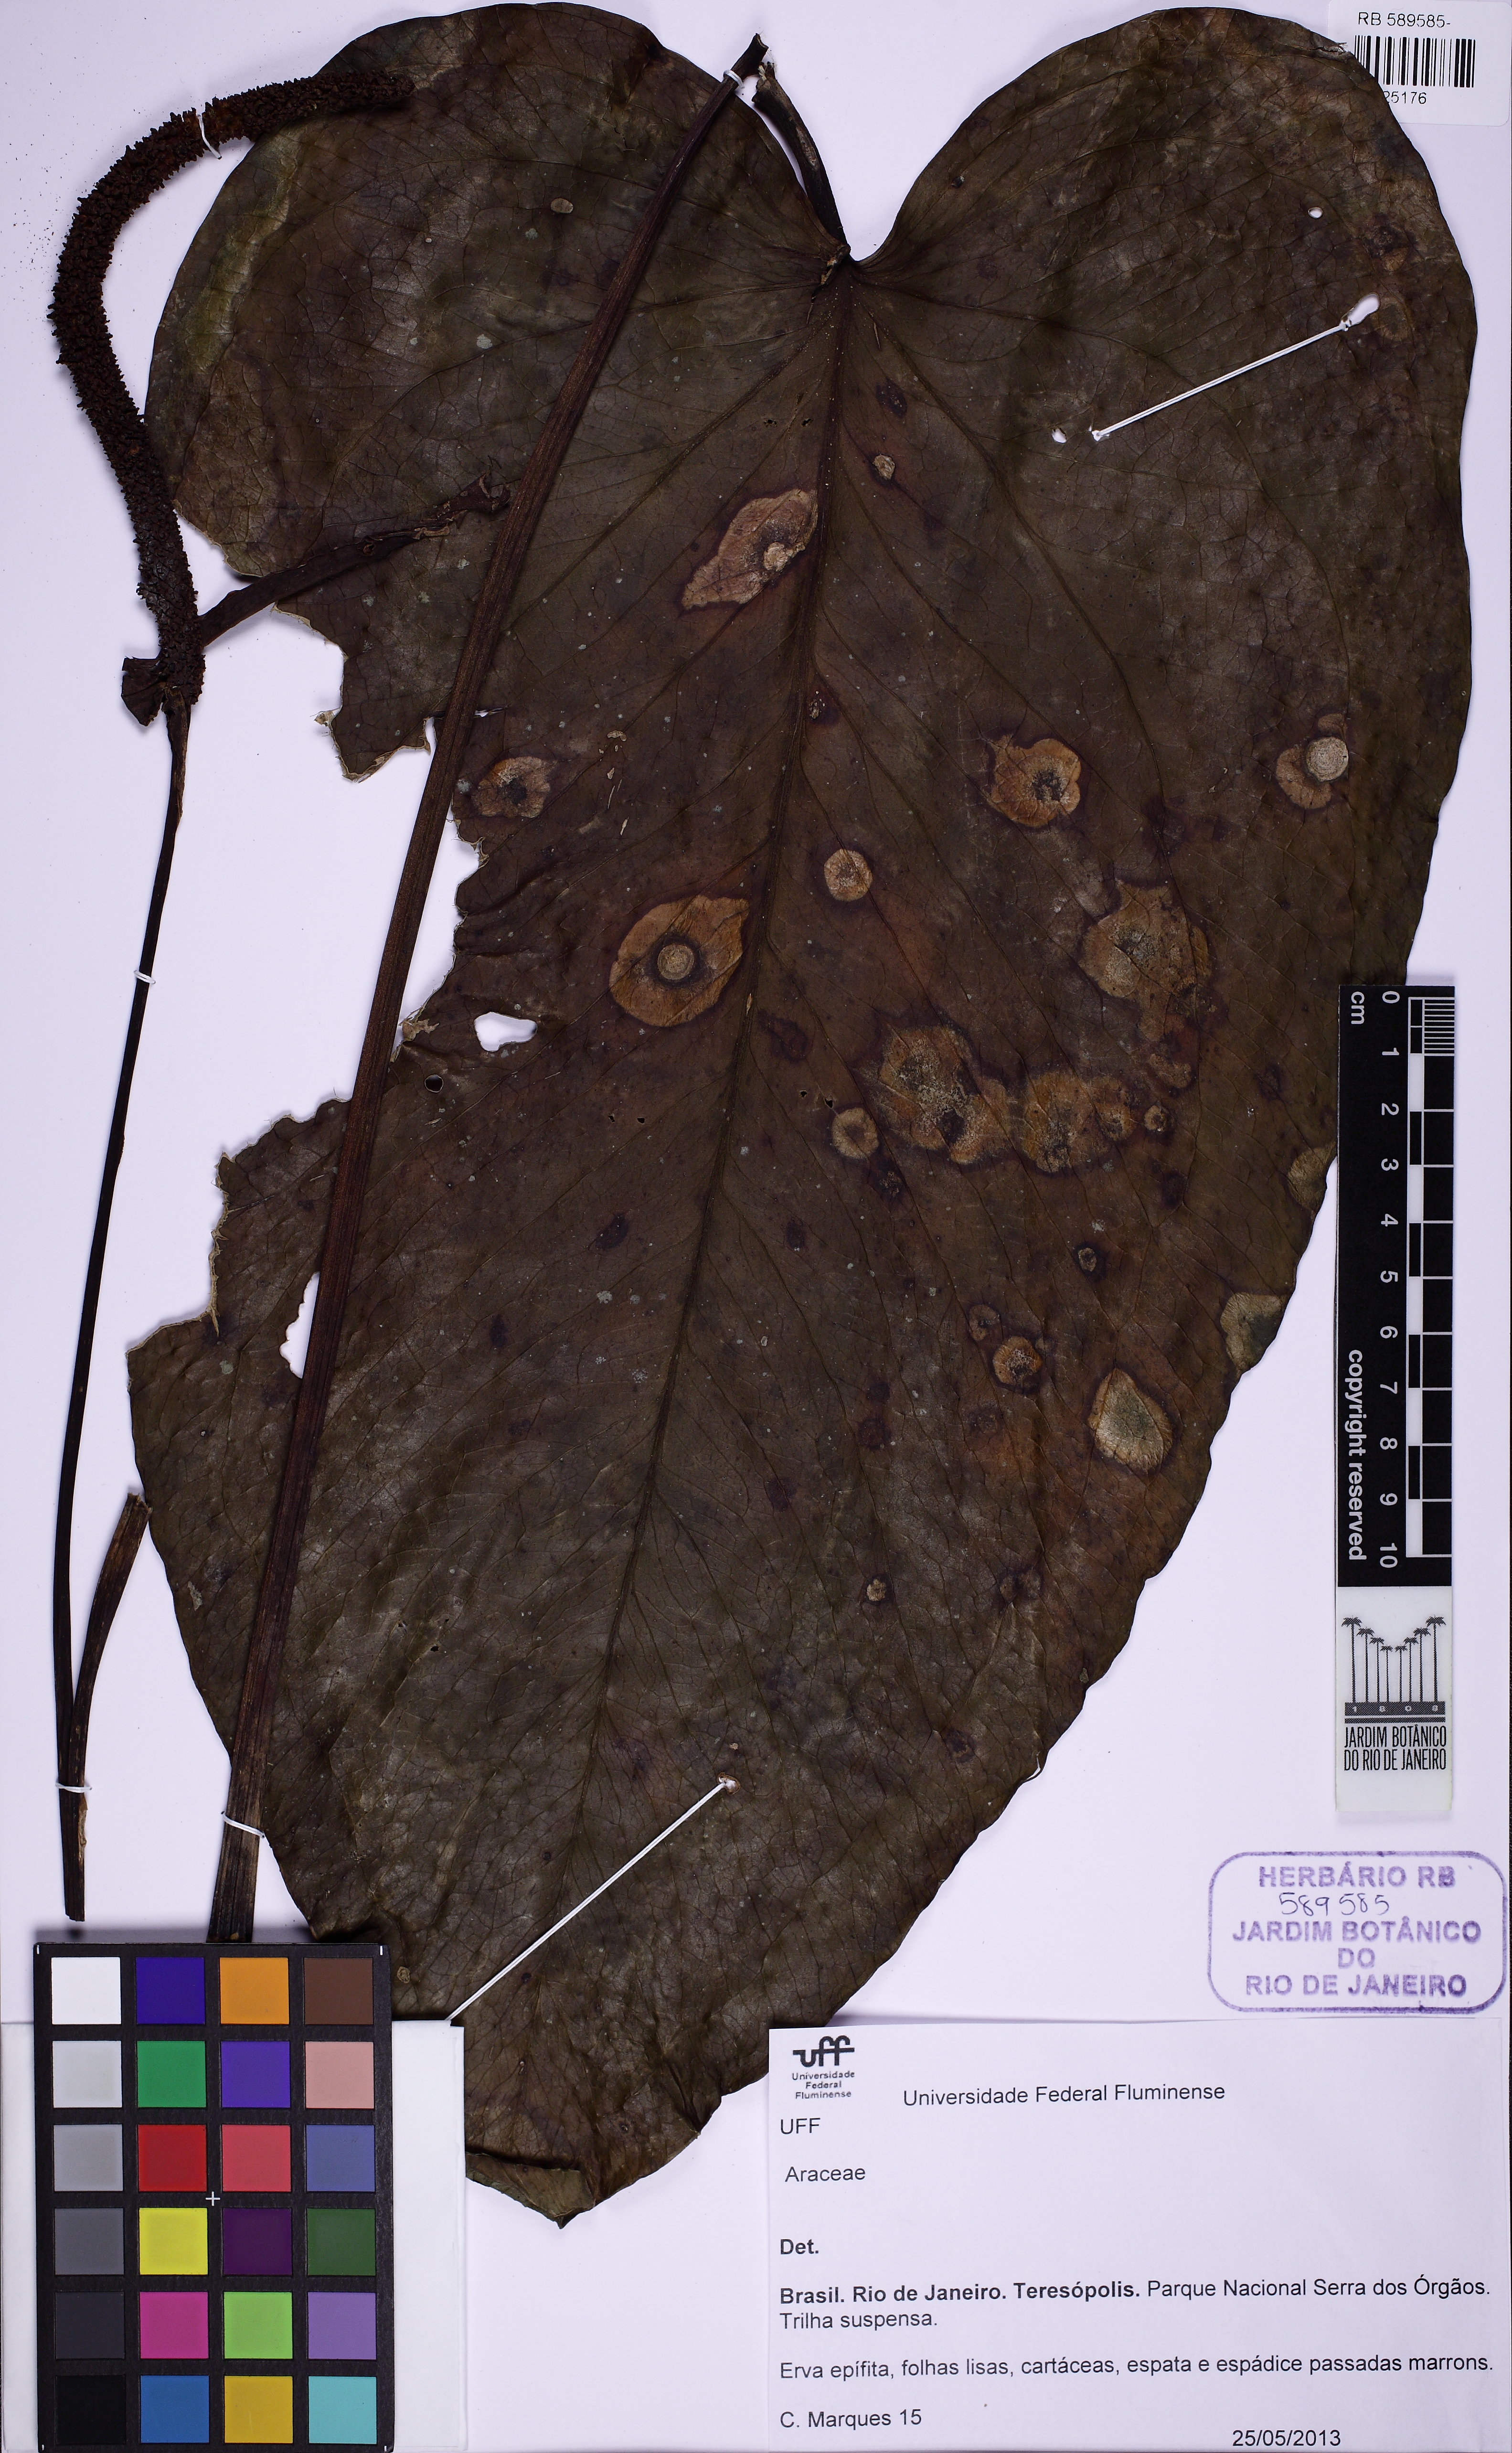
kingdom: Plantae
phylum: Tracheophyta
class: Liliopsida
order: Alismatales
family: Araceae
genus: Anthurium
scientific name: Anthurium augustinum
